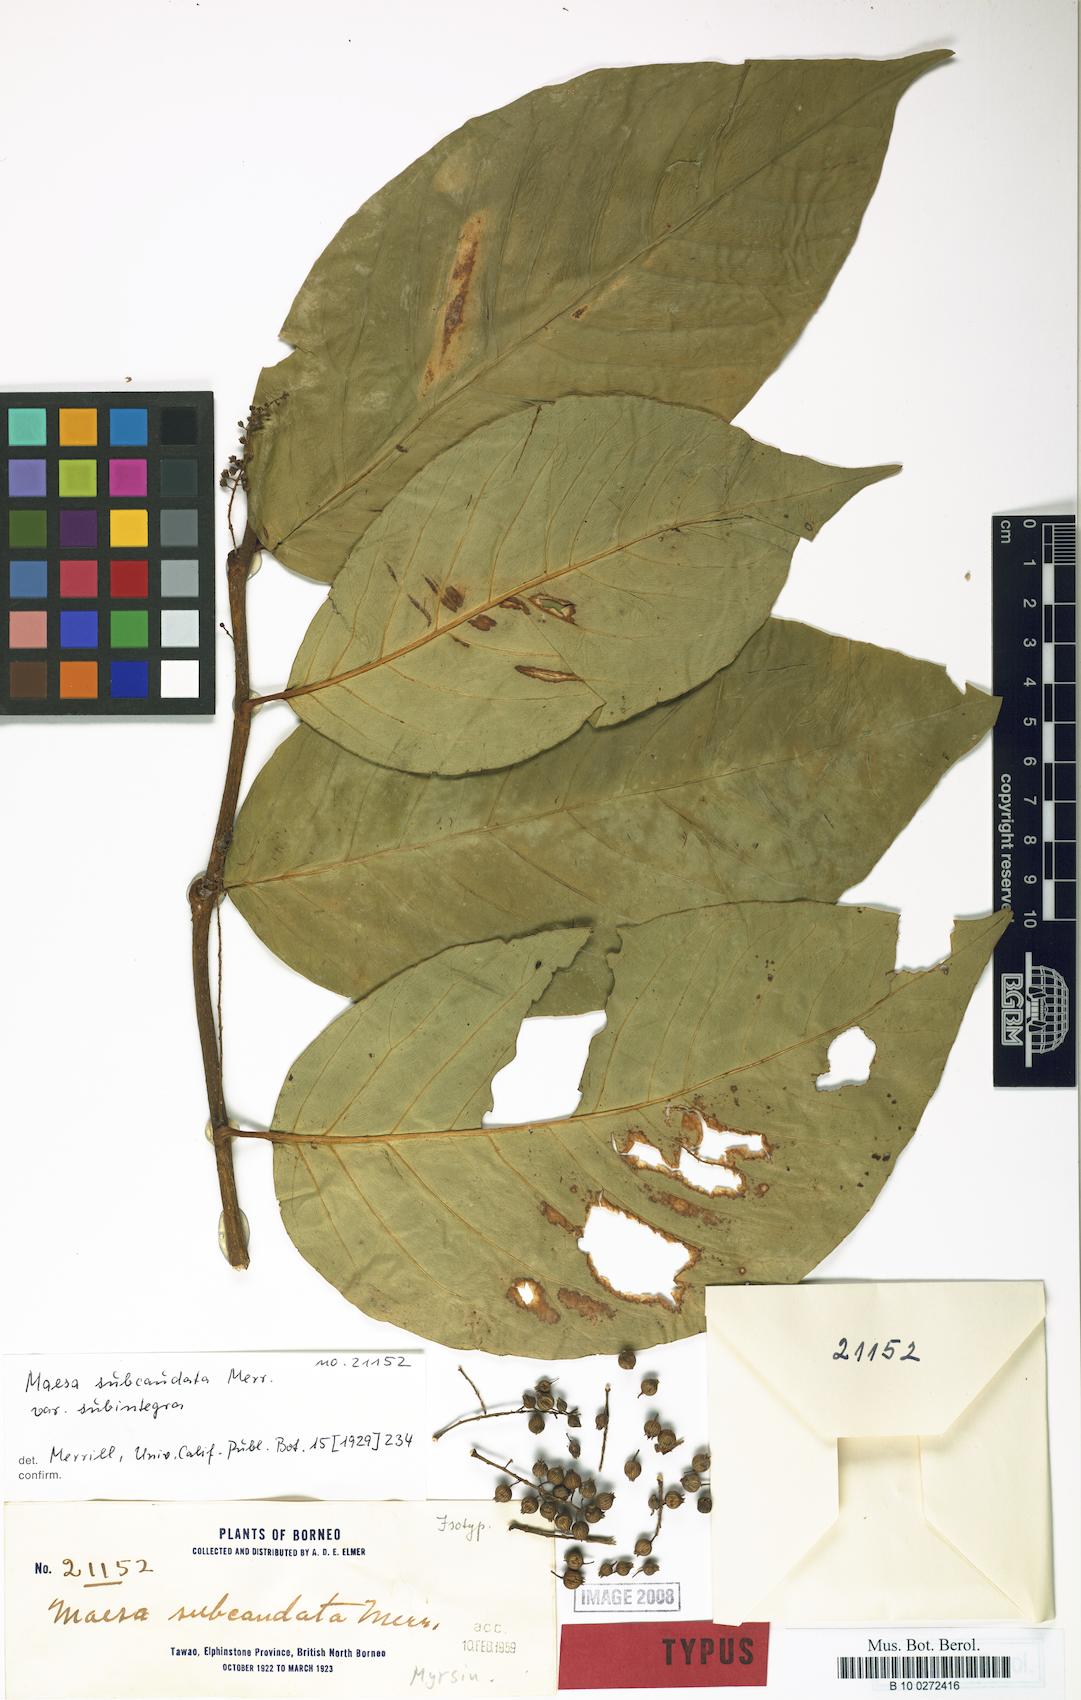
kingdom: Plantae
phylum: Tracheophyta
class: Magnoliopsida
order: Ericales
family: Primulaceae
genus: Maesa
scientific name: Maesa macrocarpa
